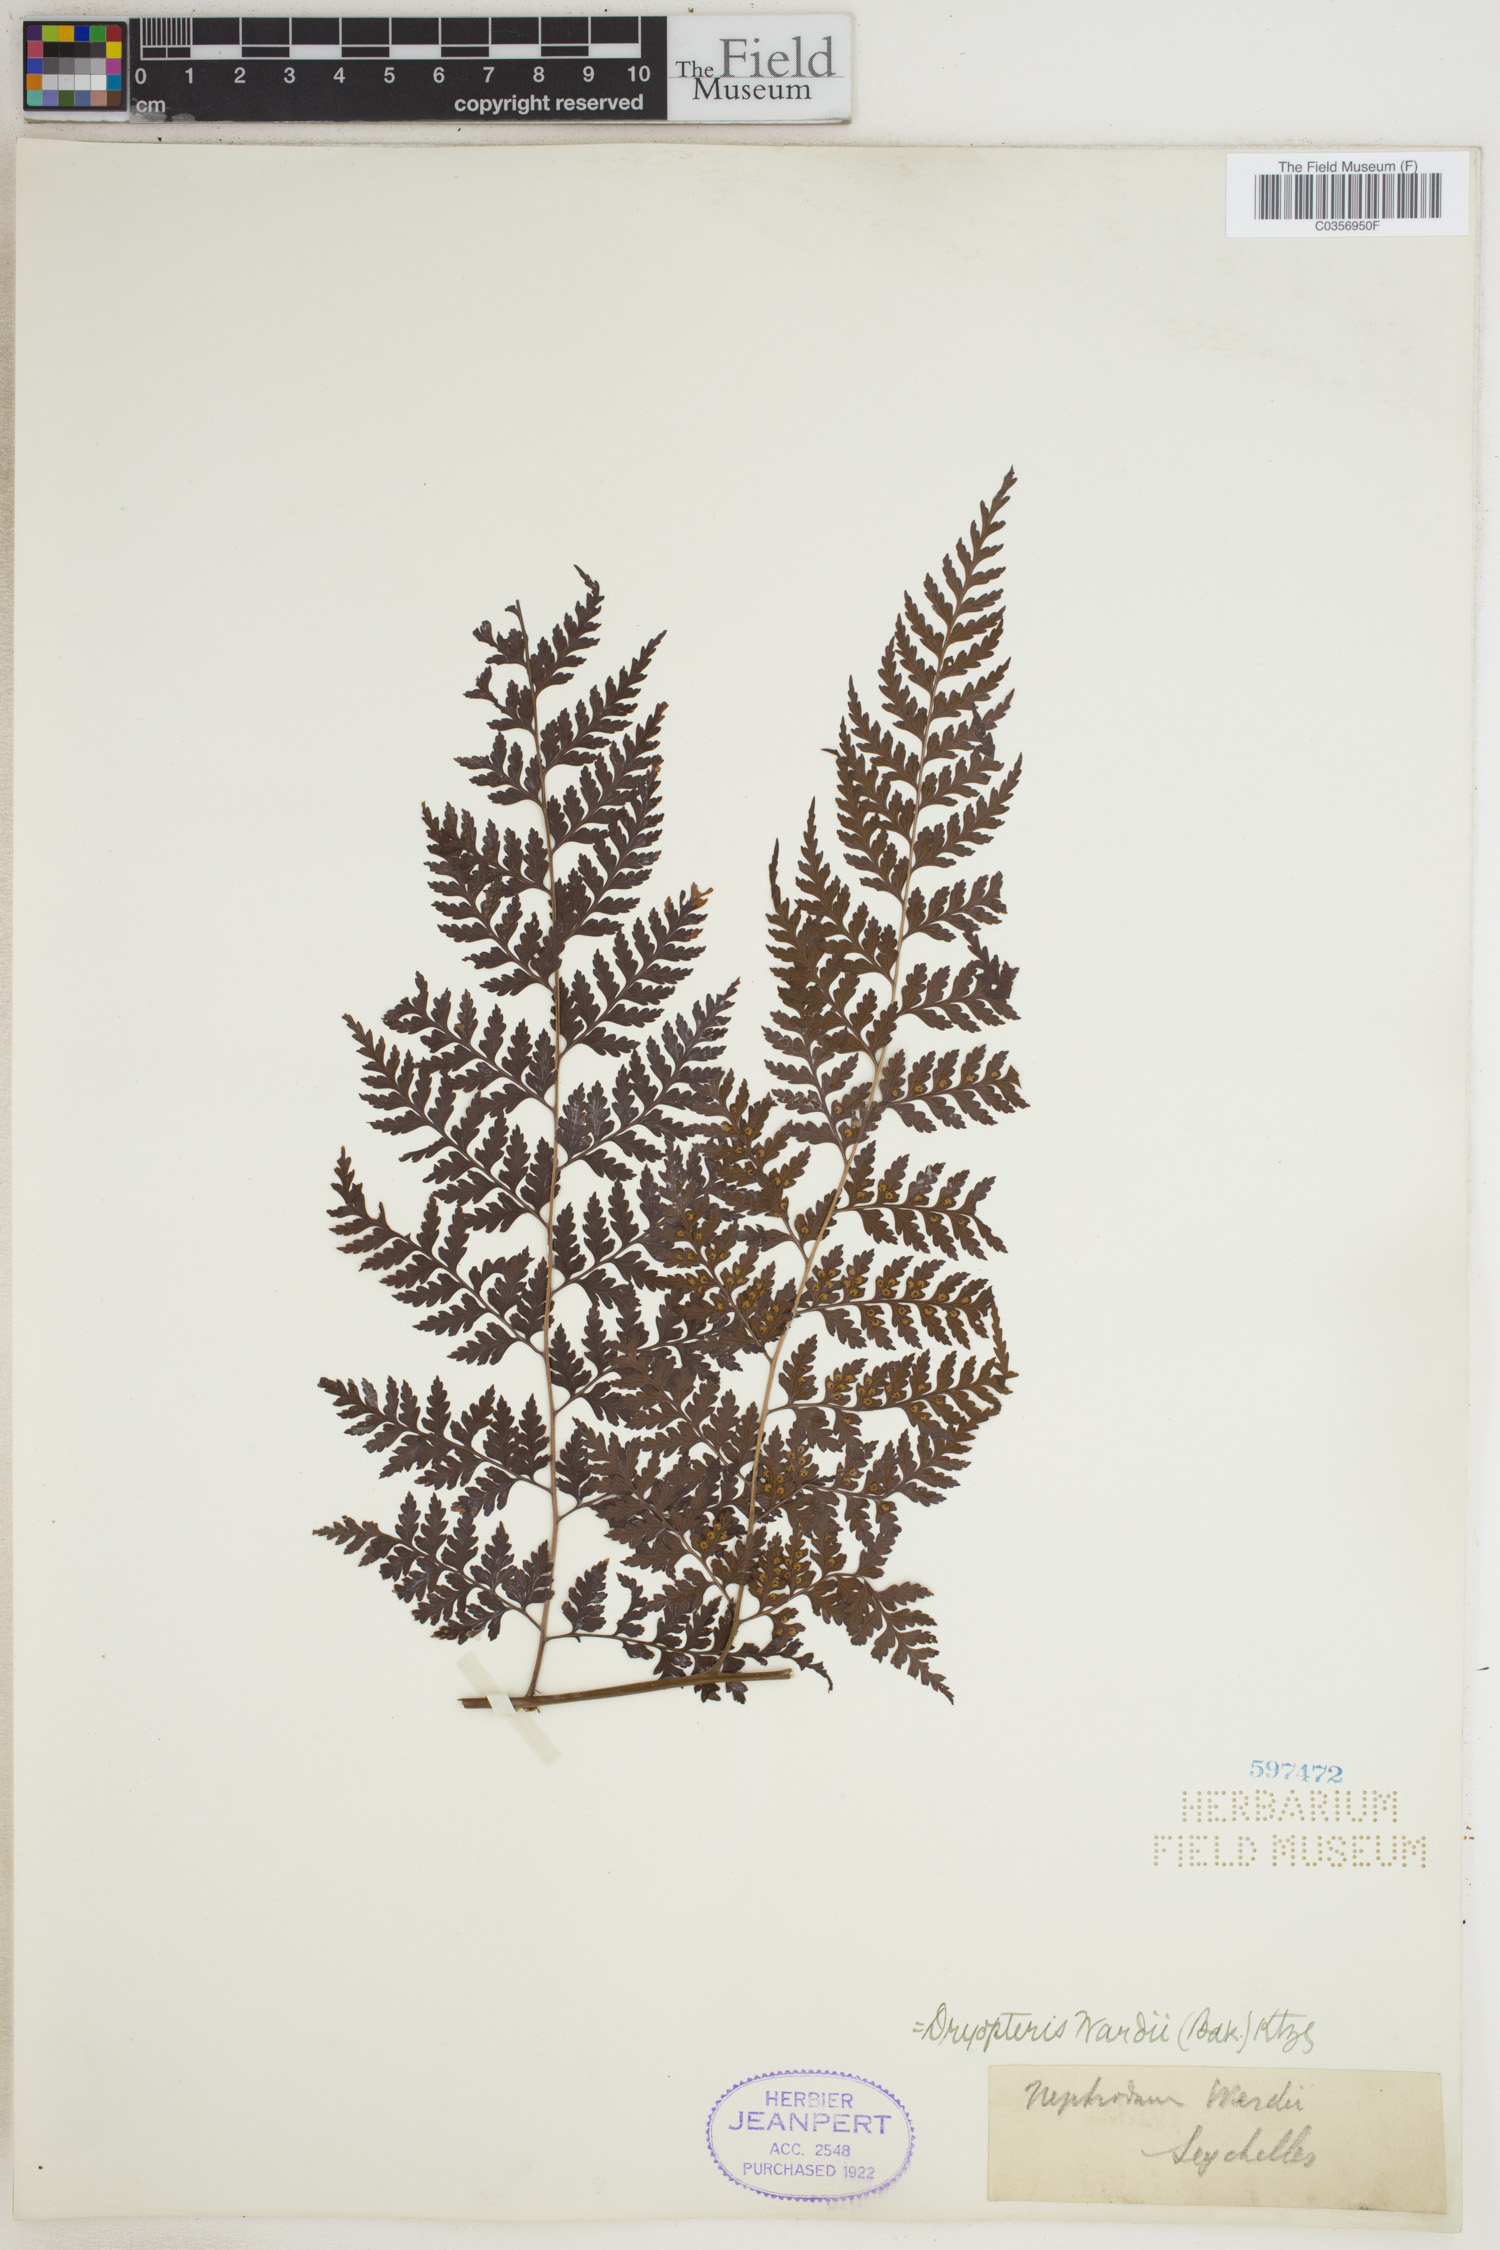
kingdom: Plantae
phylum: Tracheophyta
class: Polypodiopsida
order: Polypodiales
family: Dryopteridaceae
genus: Dryopteris
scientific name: Dryopteris wardii
